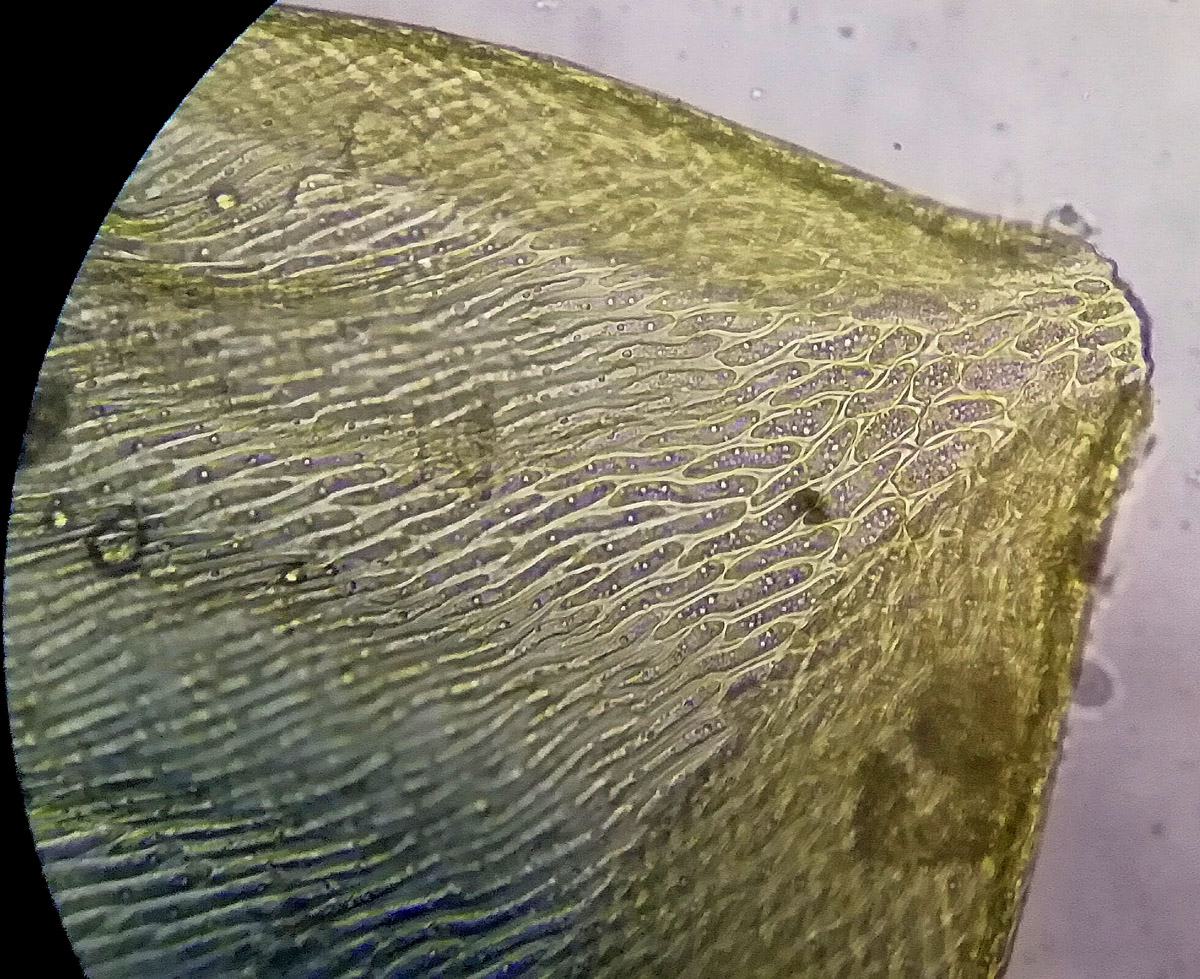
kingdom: Plantae
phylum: Bryophyta
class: Bryopsida
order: Hypnales
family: Hylocomiaceae
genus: Pleurozium
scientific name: Pleurozium schreberi
